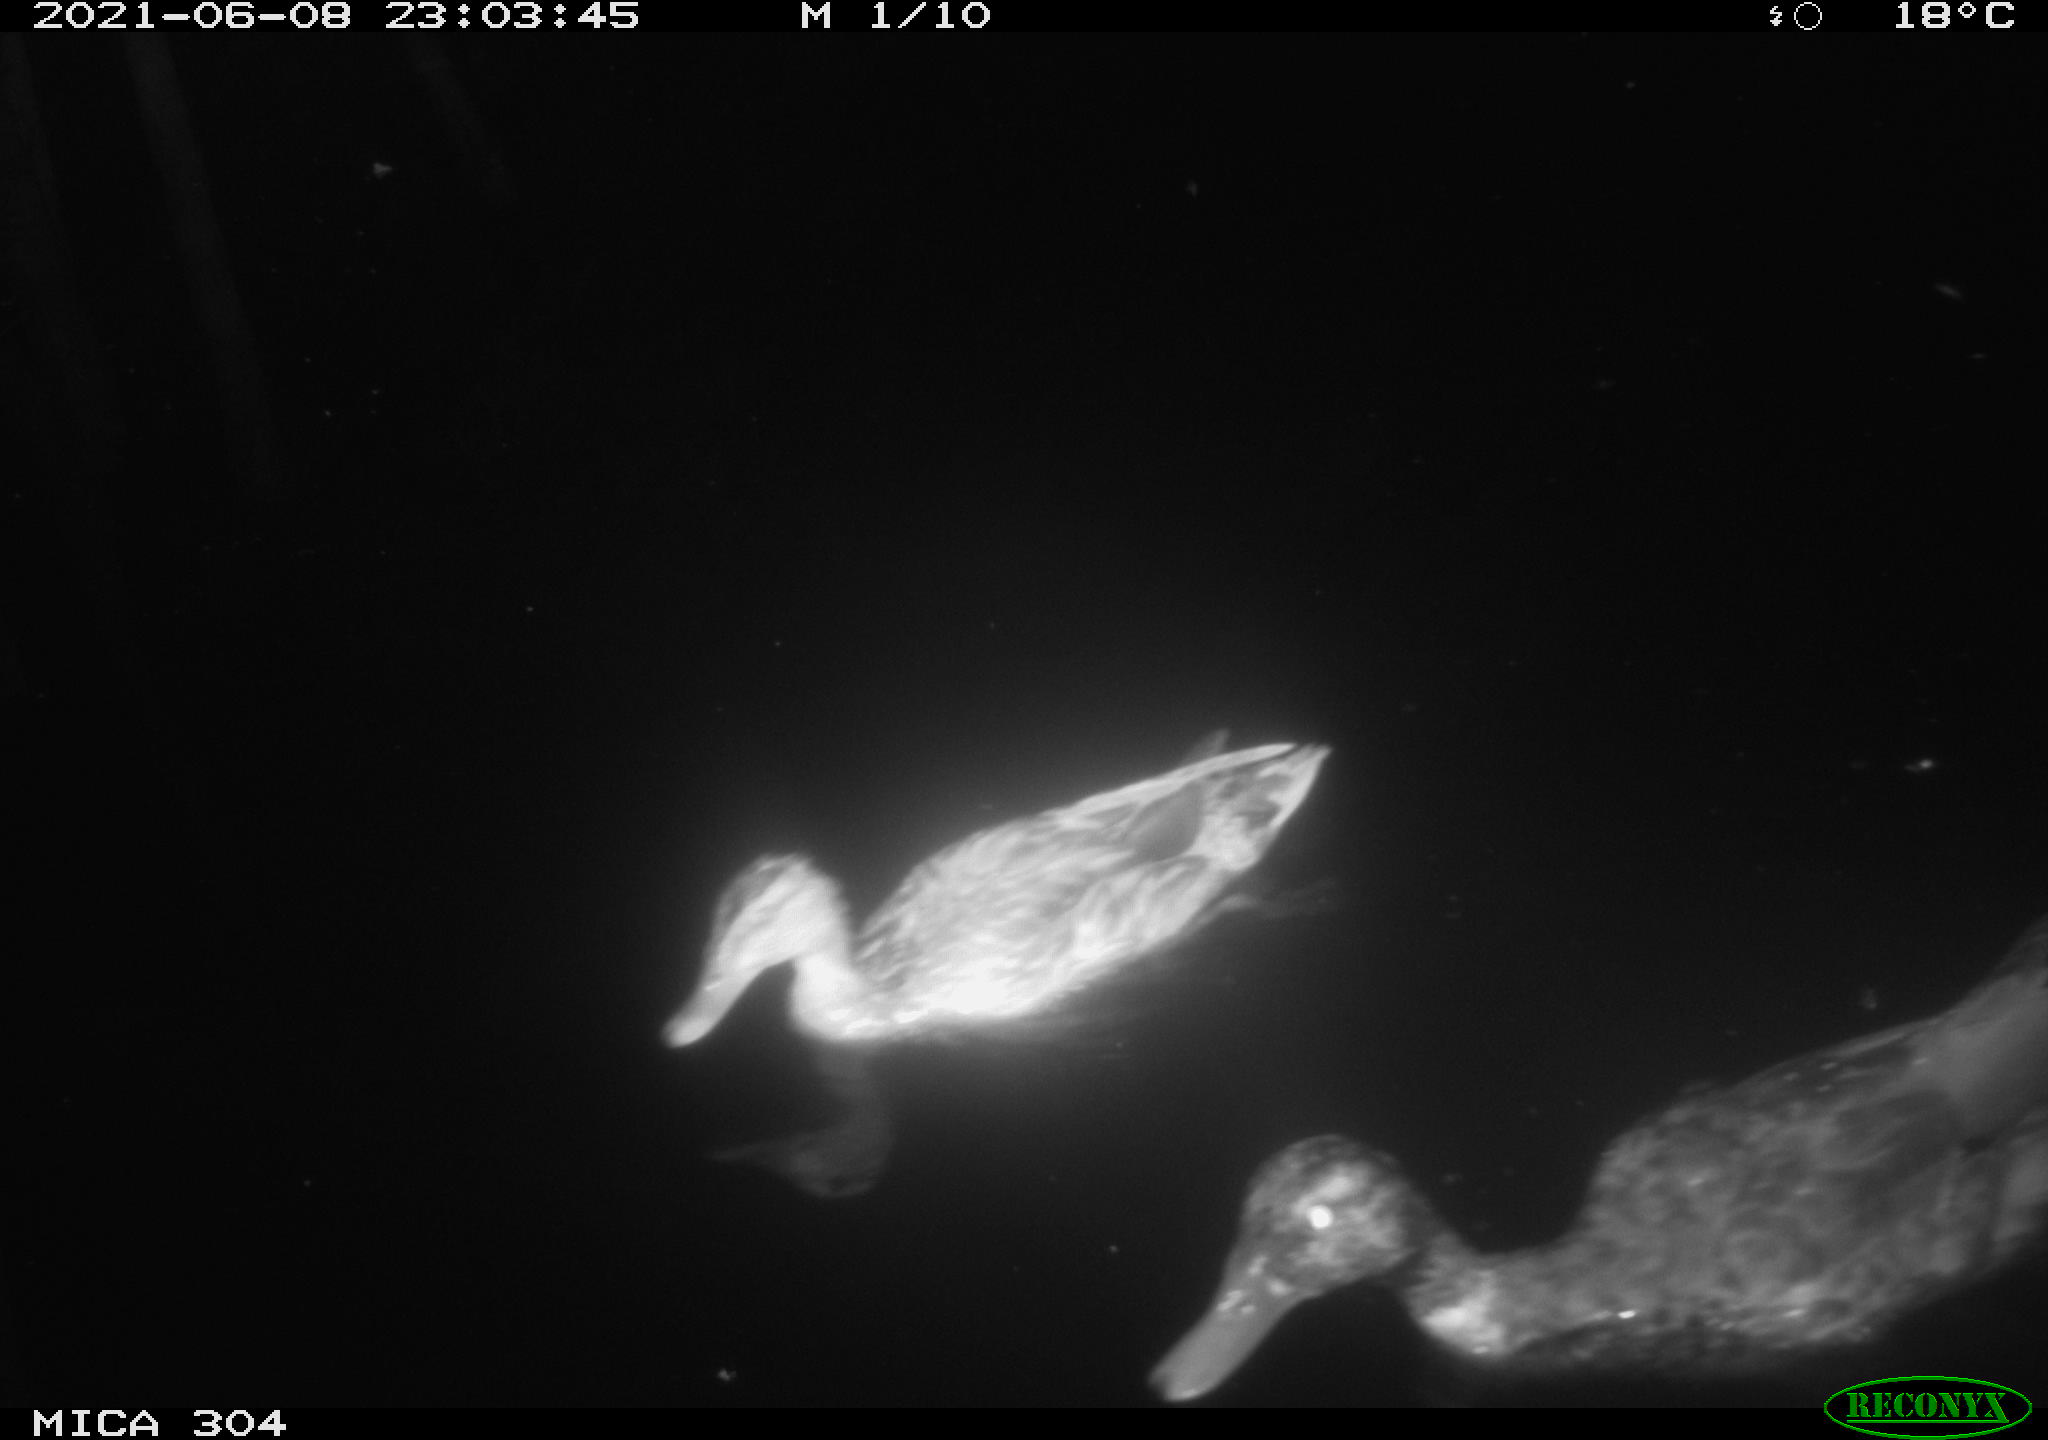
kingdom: Animalia
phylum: Chordata
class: Aves
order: Anseriformes
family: Anatidae
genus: Mareca
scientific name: Mareca strepera
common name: Gadwall
